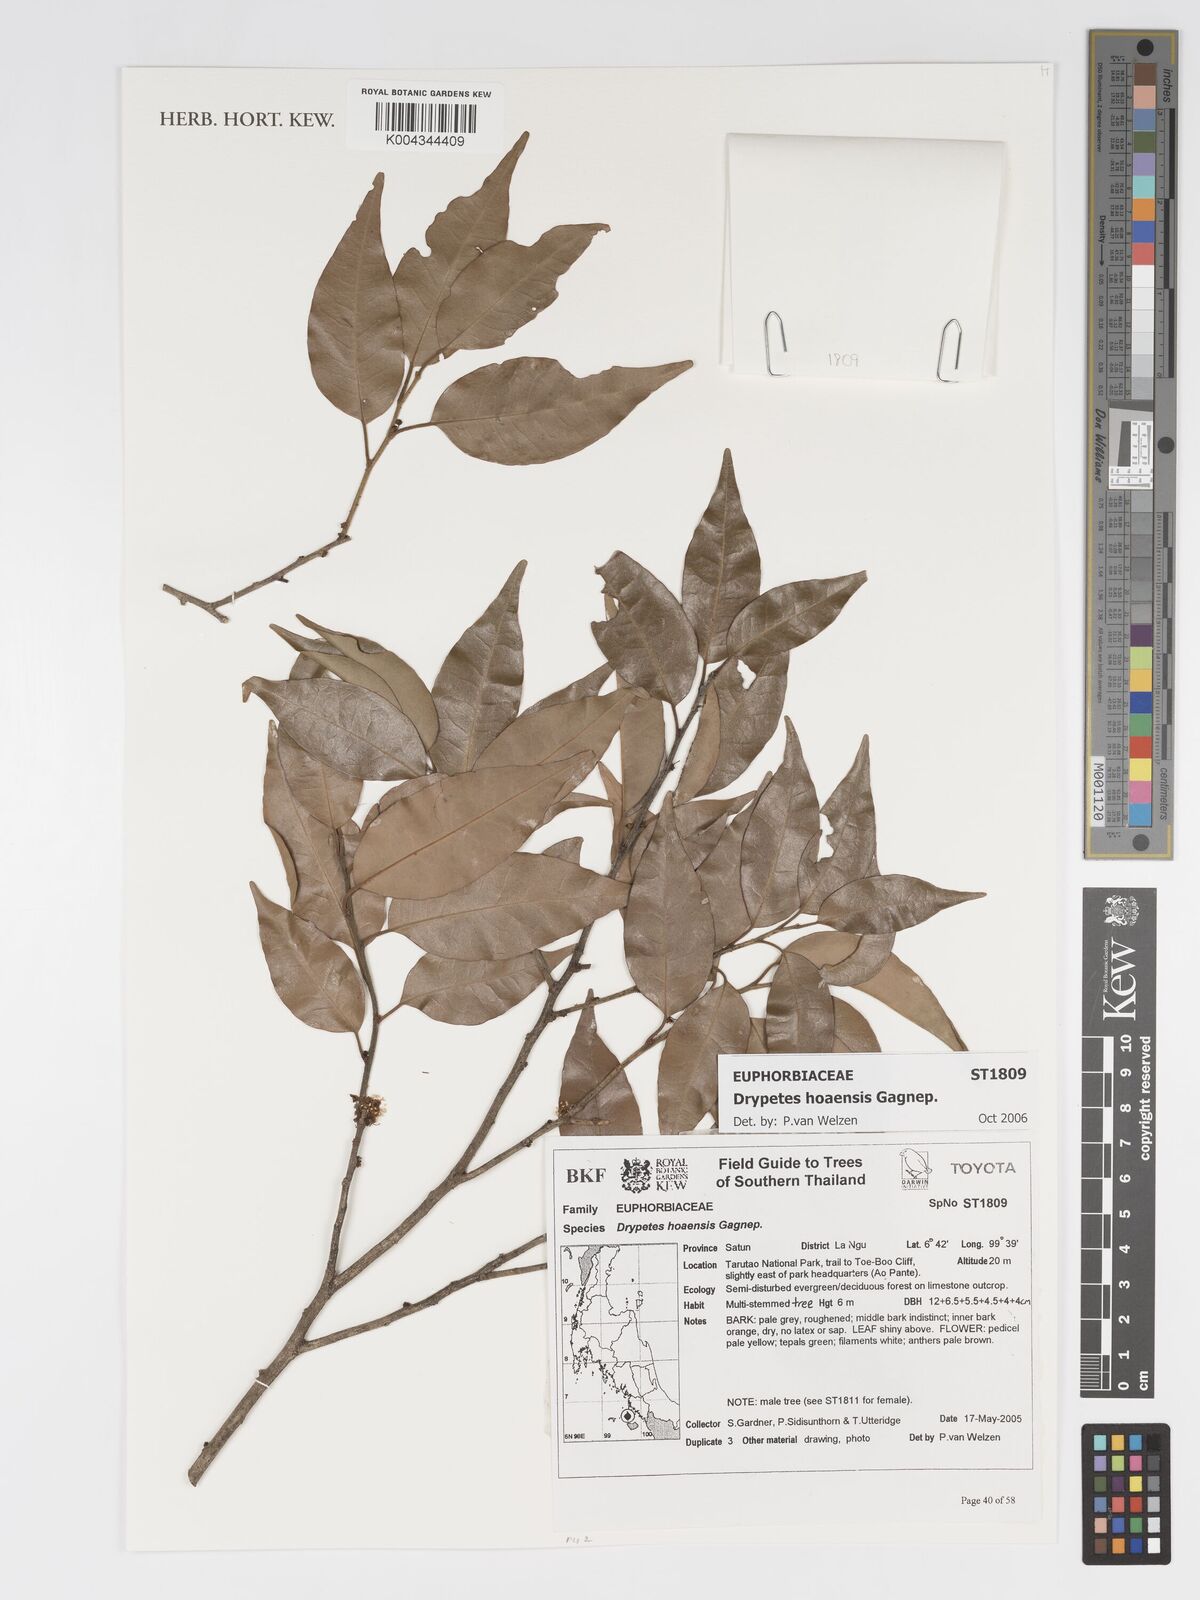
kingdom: Plantae
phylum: Tracheophyta
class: Magnoliopsida
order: Malpighiales
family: Putranjivaceae
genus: Drypetes
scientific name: Drypetes hoaensis
